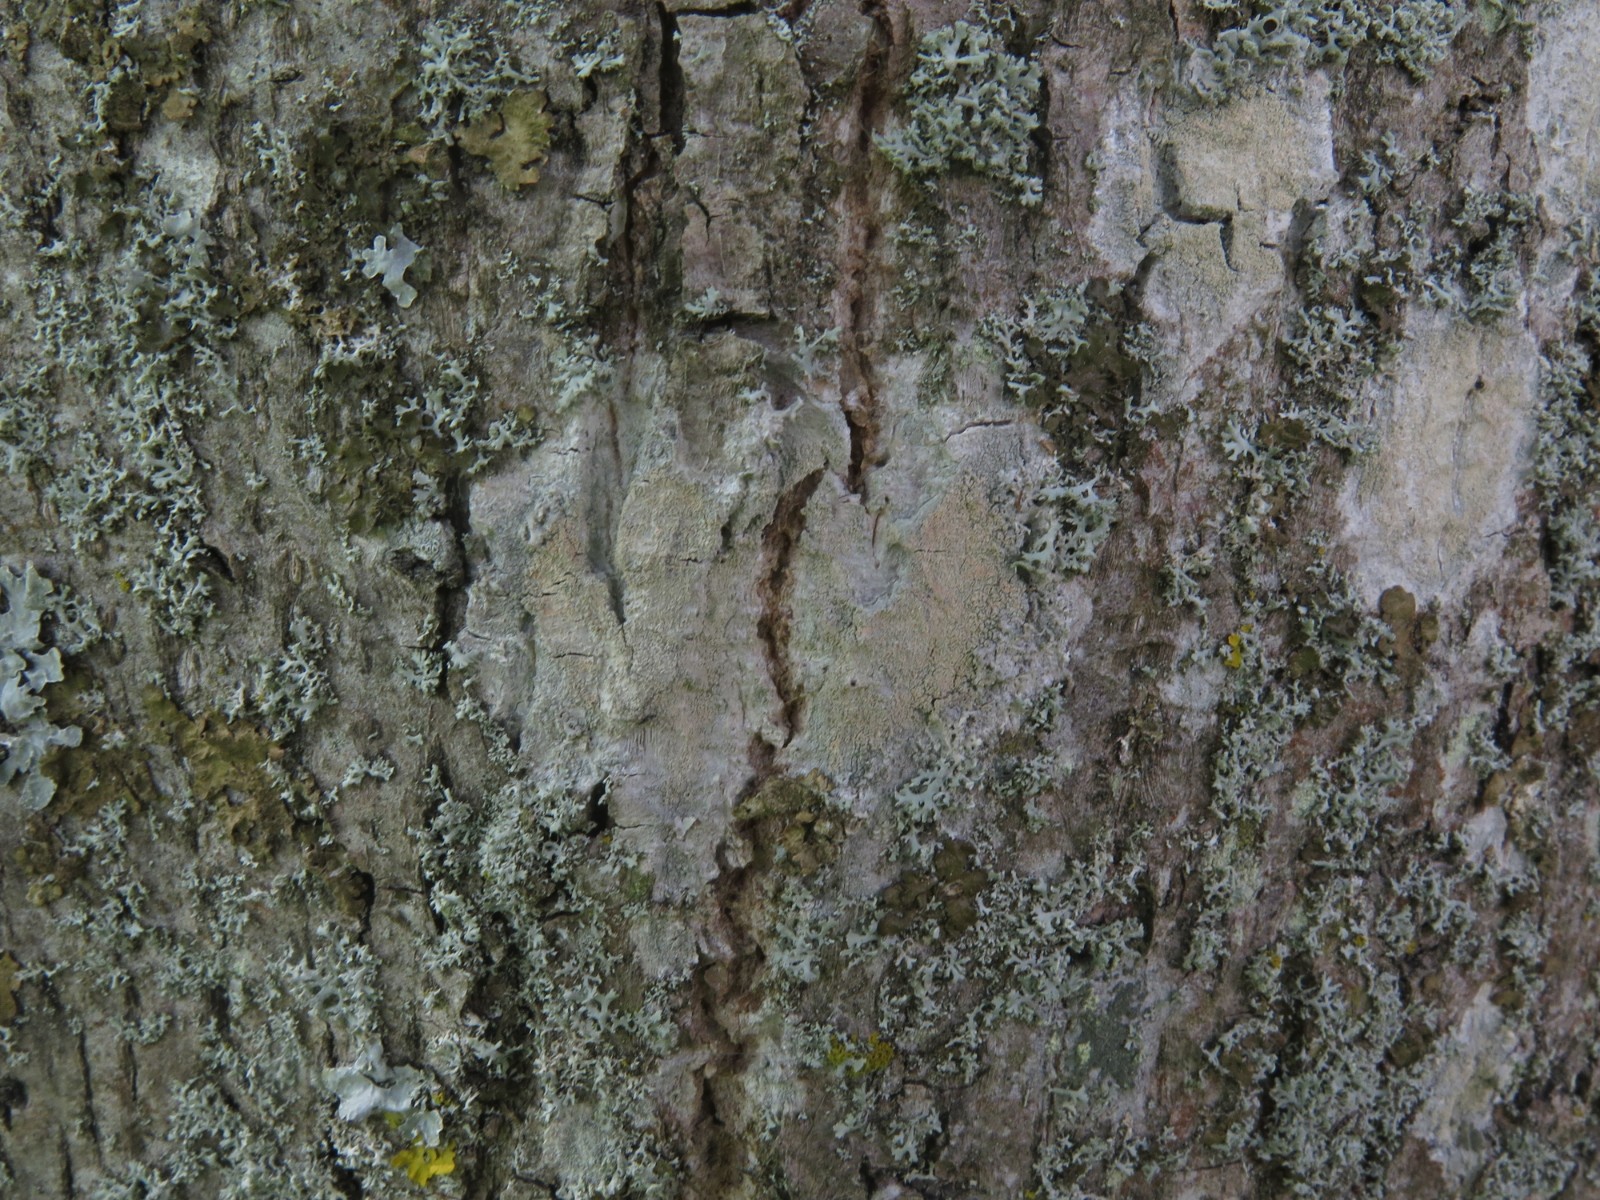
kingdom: Fungi
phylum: Ascomycota
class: Lecanoromycetes
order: Ostropales
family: Phlyctidaceae
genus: Phlyctis
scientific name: Phlyctis argena
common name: almindelig sølvlav
